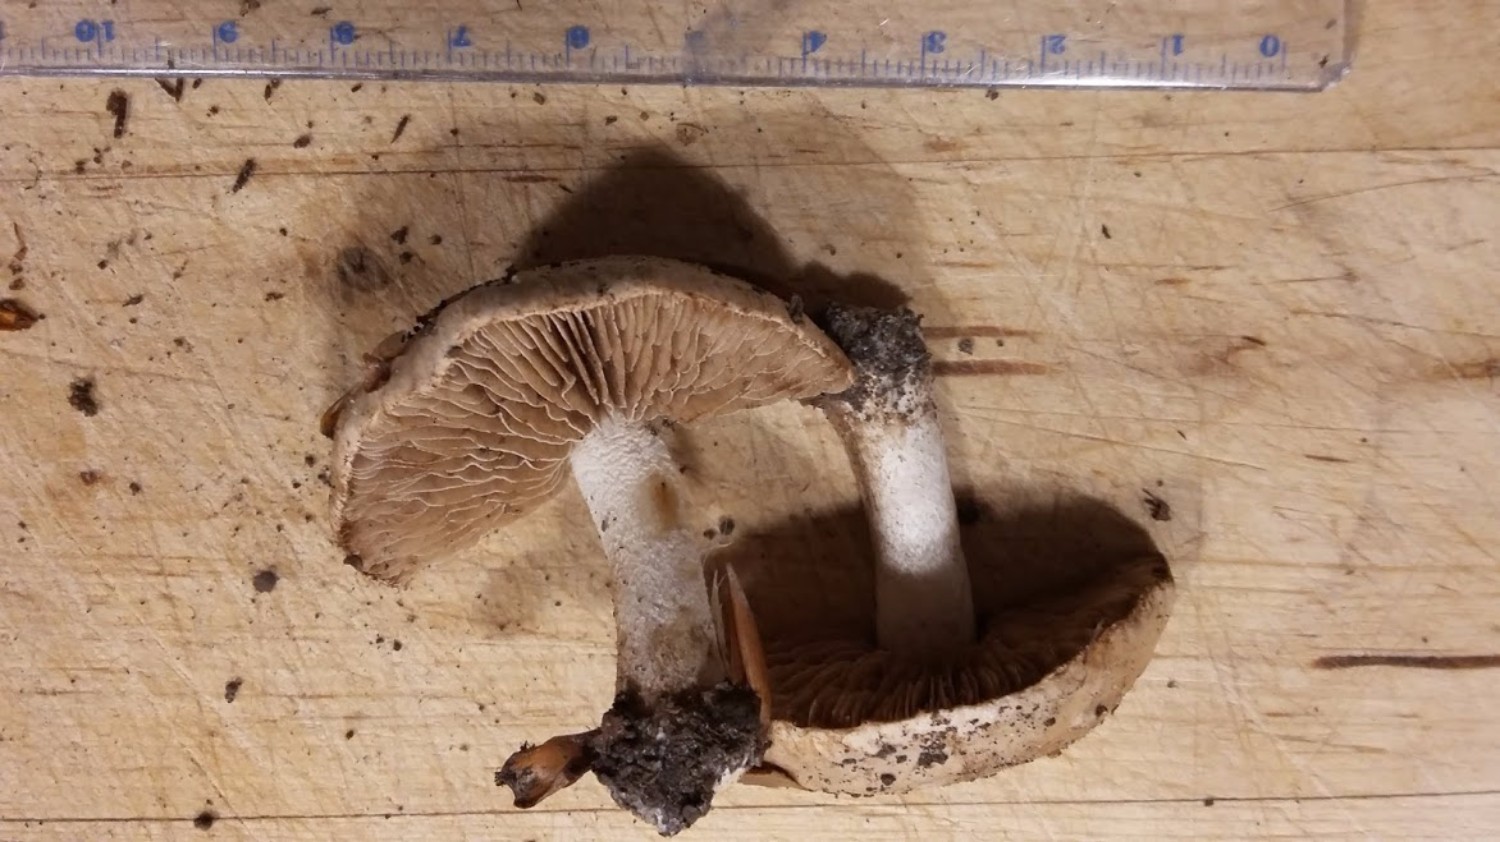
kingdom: Fungi
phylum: Basidiomycota
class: Agaricomycetes
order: Agaricales
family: Hymenogastraceae
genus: Hebeloma
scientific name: Hebeloma
